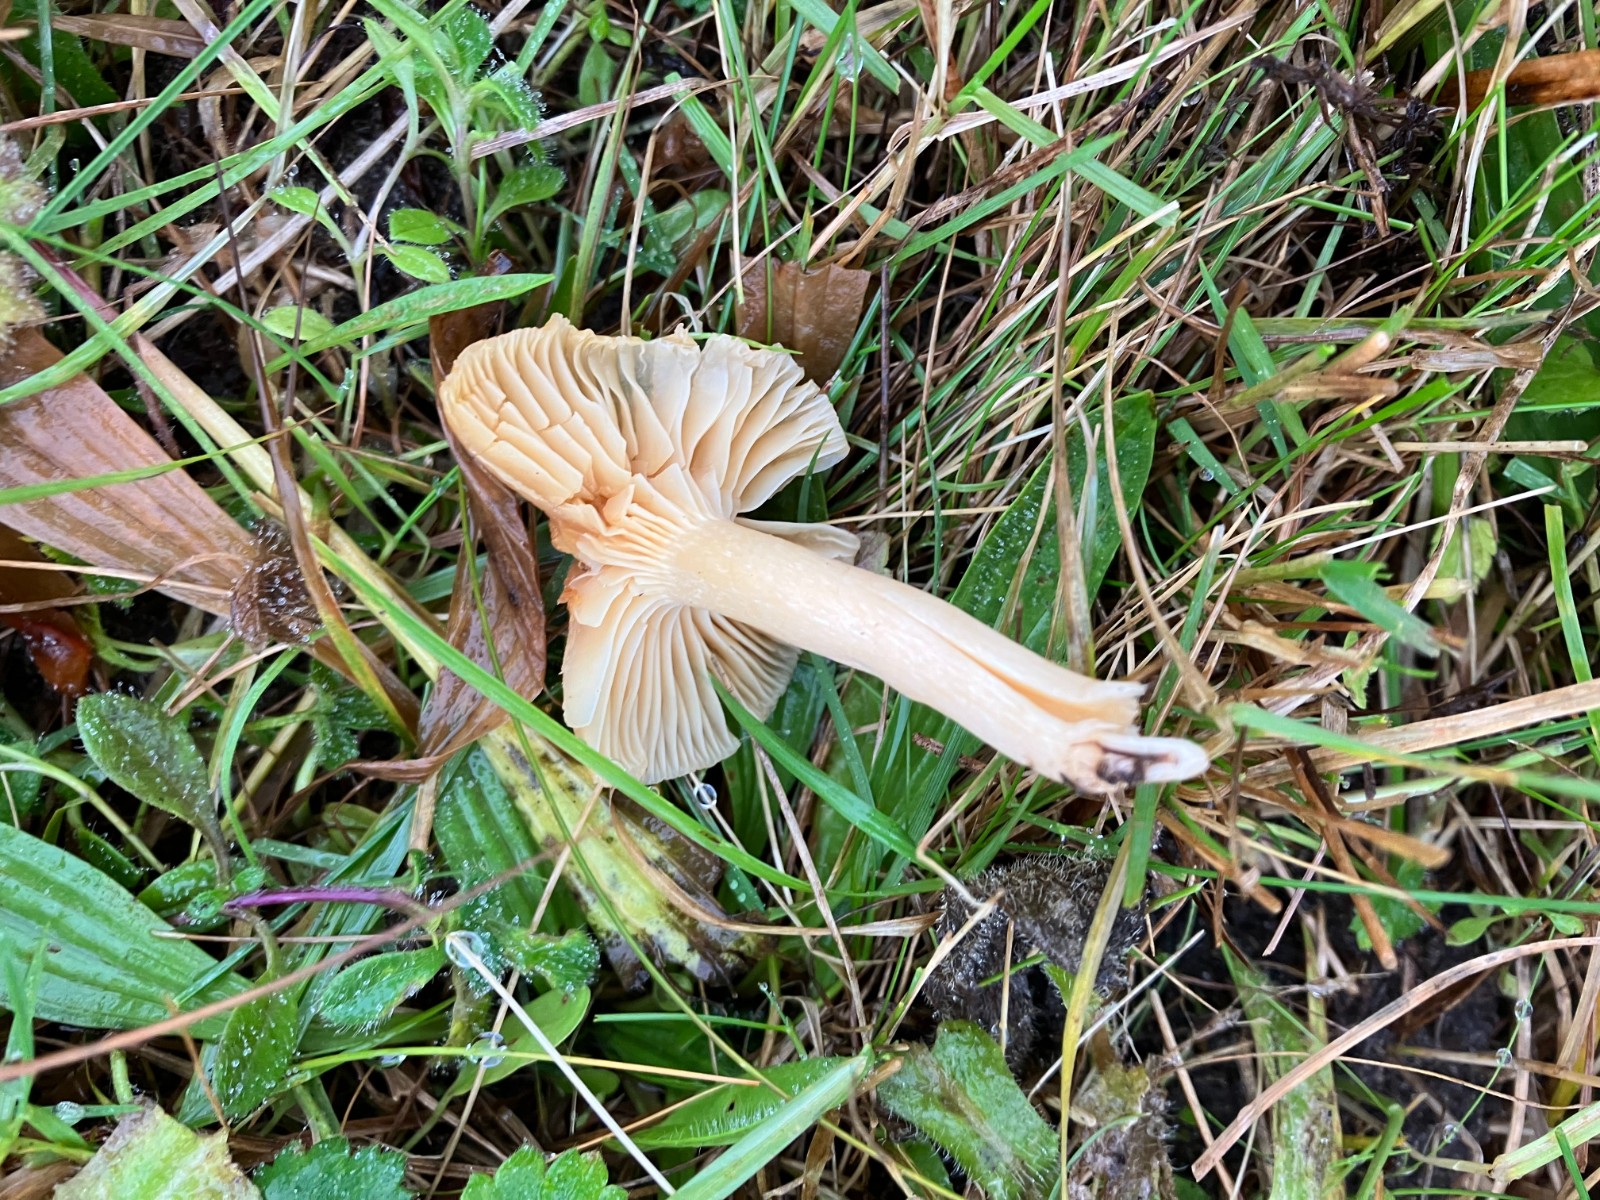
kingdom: Fungi
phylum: Basidiomycota
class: Agaricomycetes
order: Agaricales
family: Hygrophoraceae
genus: Cuphophyllus
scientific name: Cuphophyllus pratensis
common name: eng-vokshat
